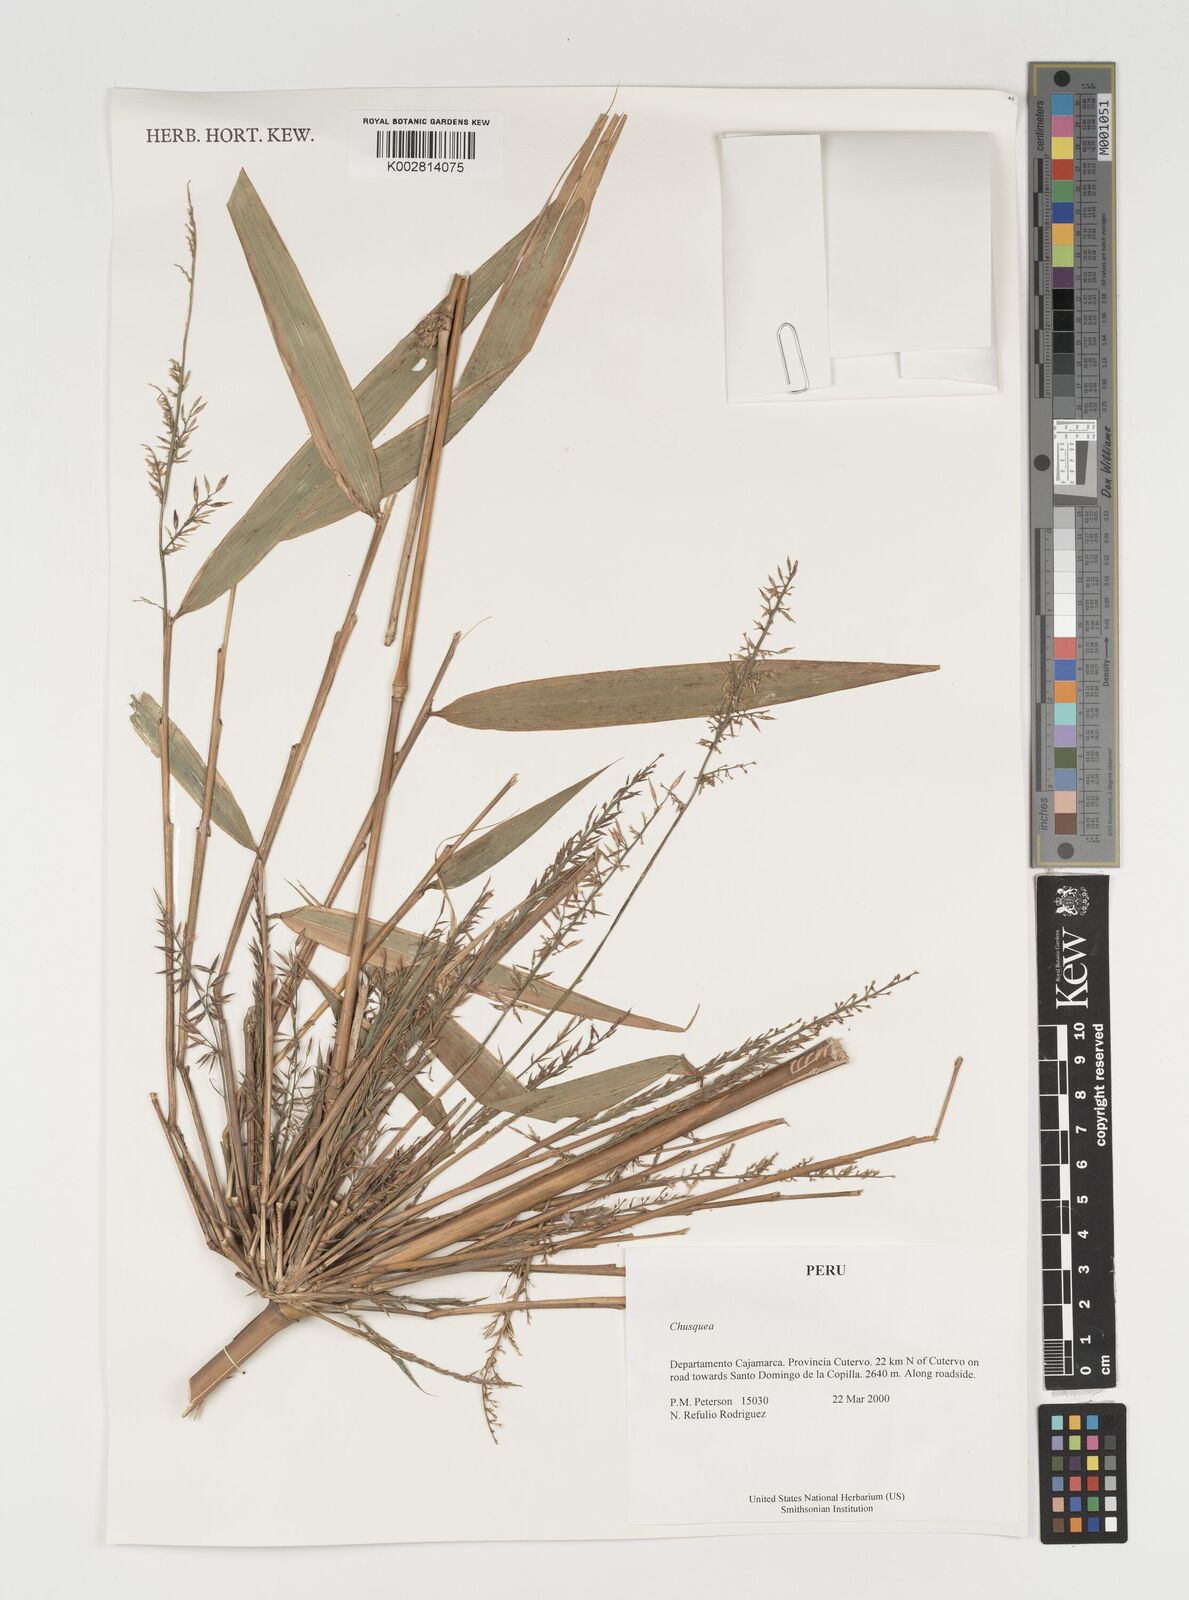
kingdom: Plantae
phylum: Tracheophyta
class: Liliopsida
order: Poales
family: Poaceae
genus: Chusquea
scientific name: Chusquea
